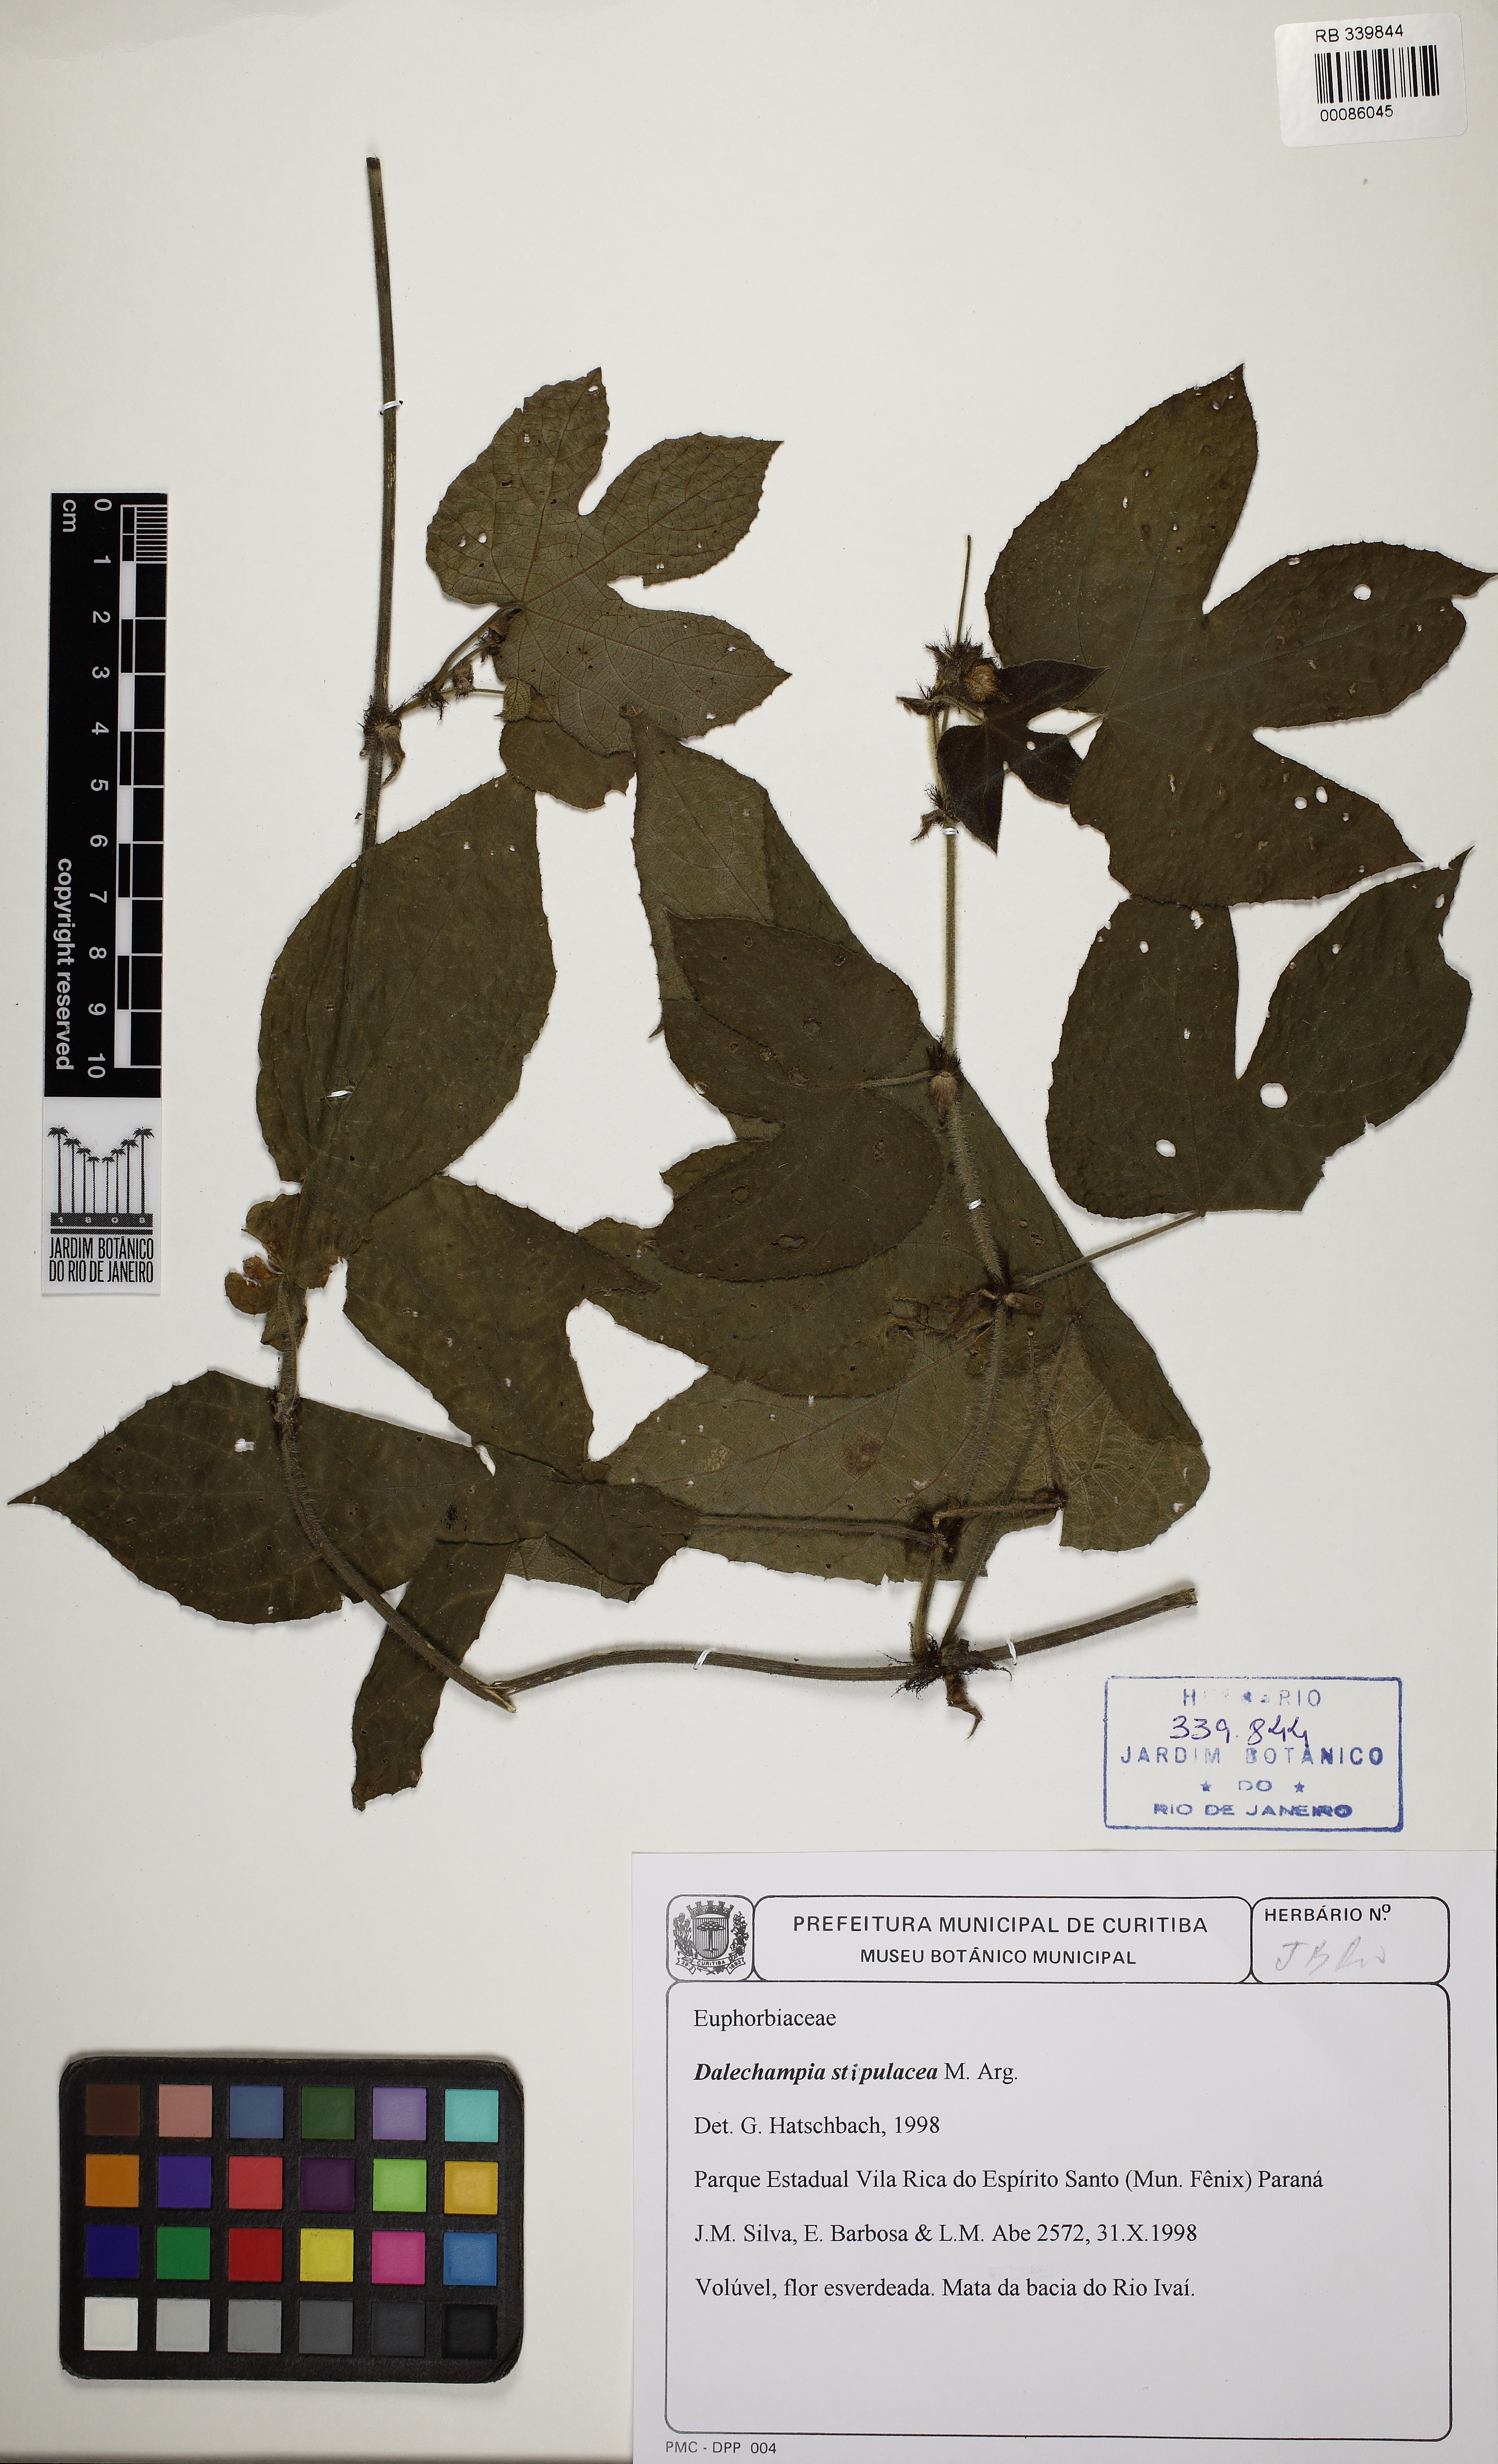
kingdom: Plantae
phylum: Tracheophyta
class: Magnoliopsida
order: Malpighiales
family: Euphorbiaceae
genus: Dalechampia
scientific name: Dalechampia stipulacea
